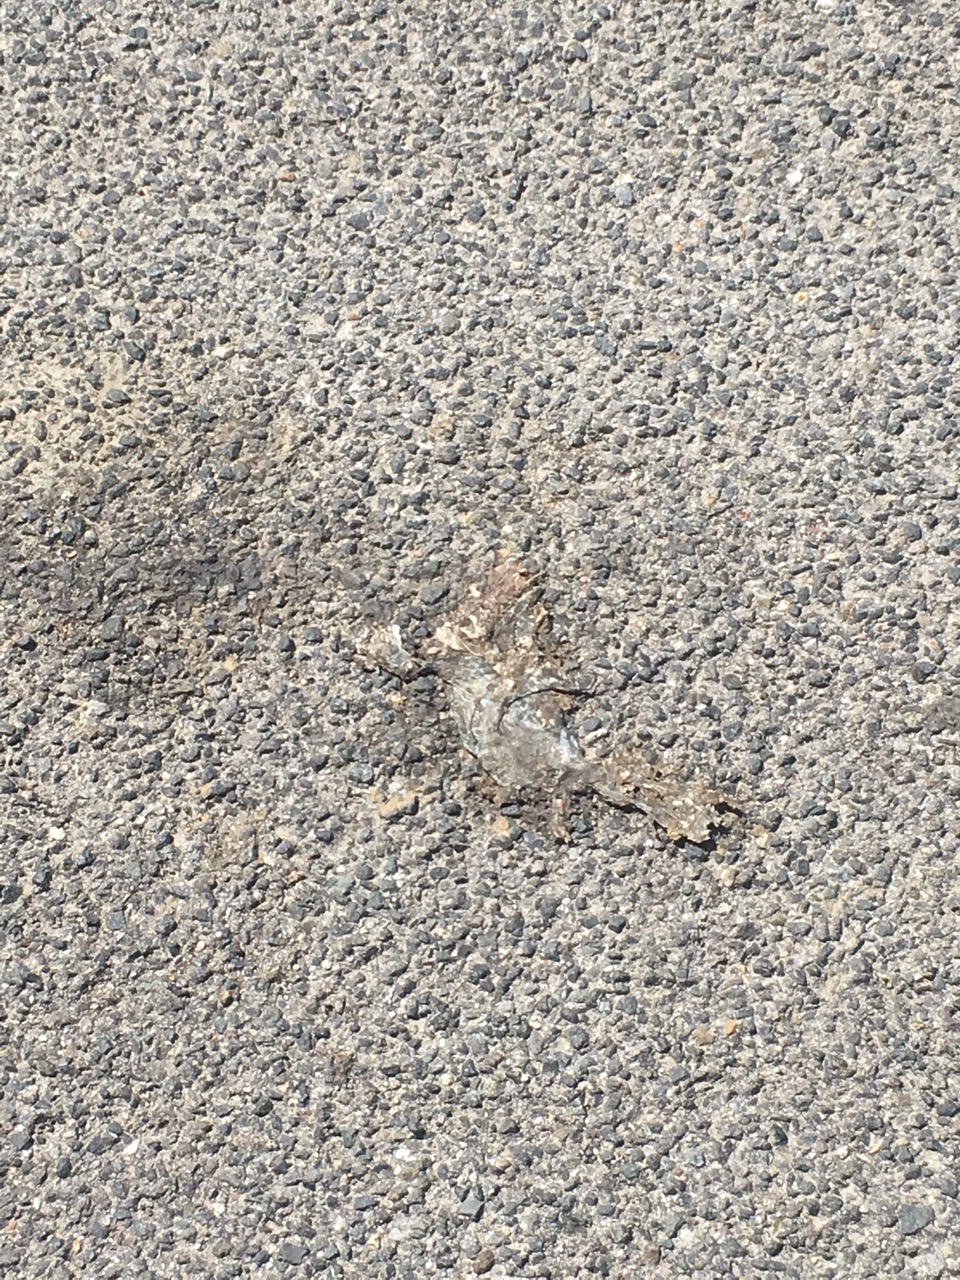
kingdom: Animalia
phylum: Chordata
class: Amphibia
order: Anura
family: Bufonidae
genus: Bufotes
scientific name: Bufotes viridis
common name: European green toad
